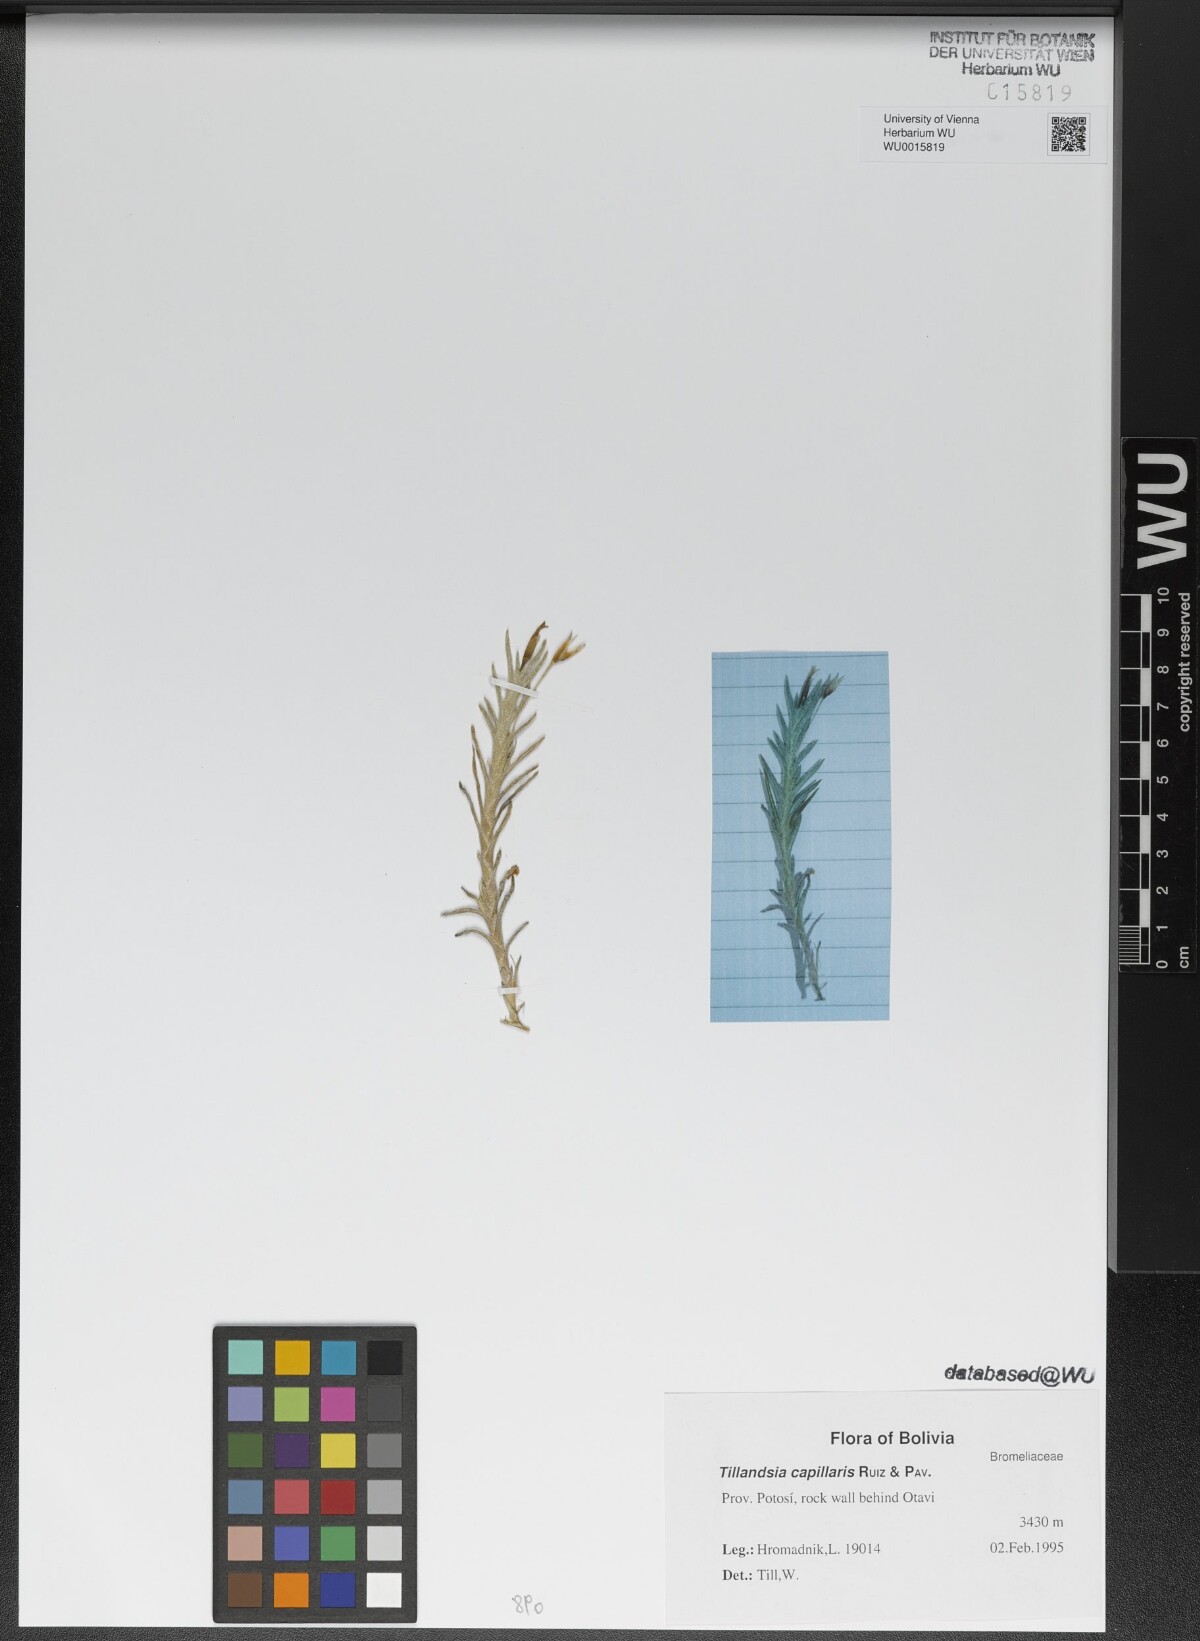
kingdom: Plantae
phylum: Tracheophyta
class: Liliopsida
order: Poales
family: Bromeliaceae
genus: Tillandsia
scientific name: Tillandsia capillaris
